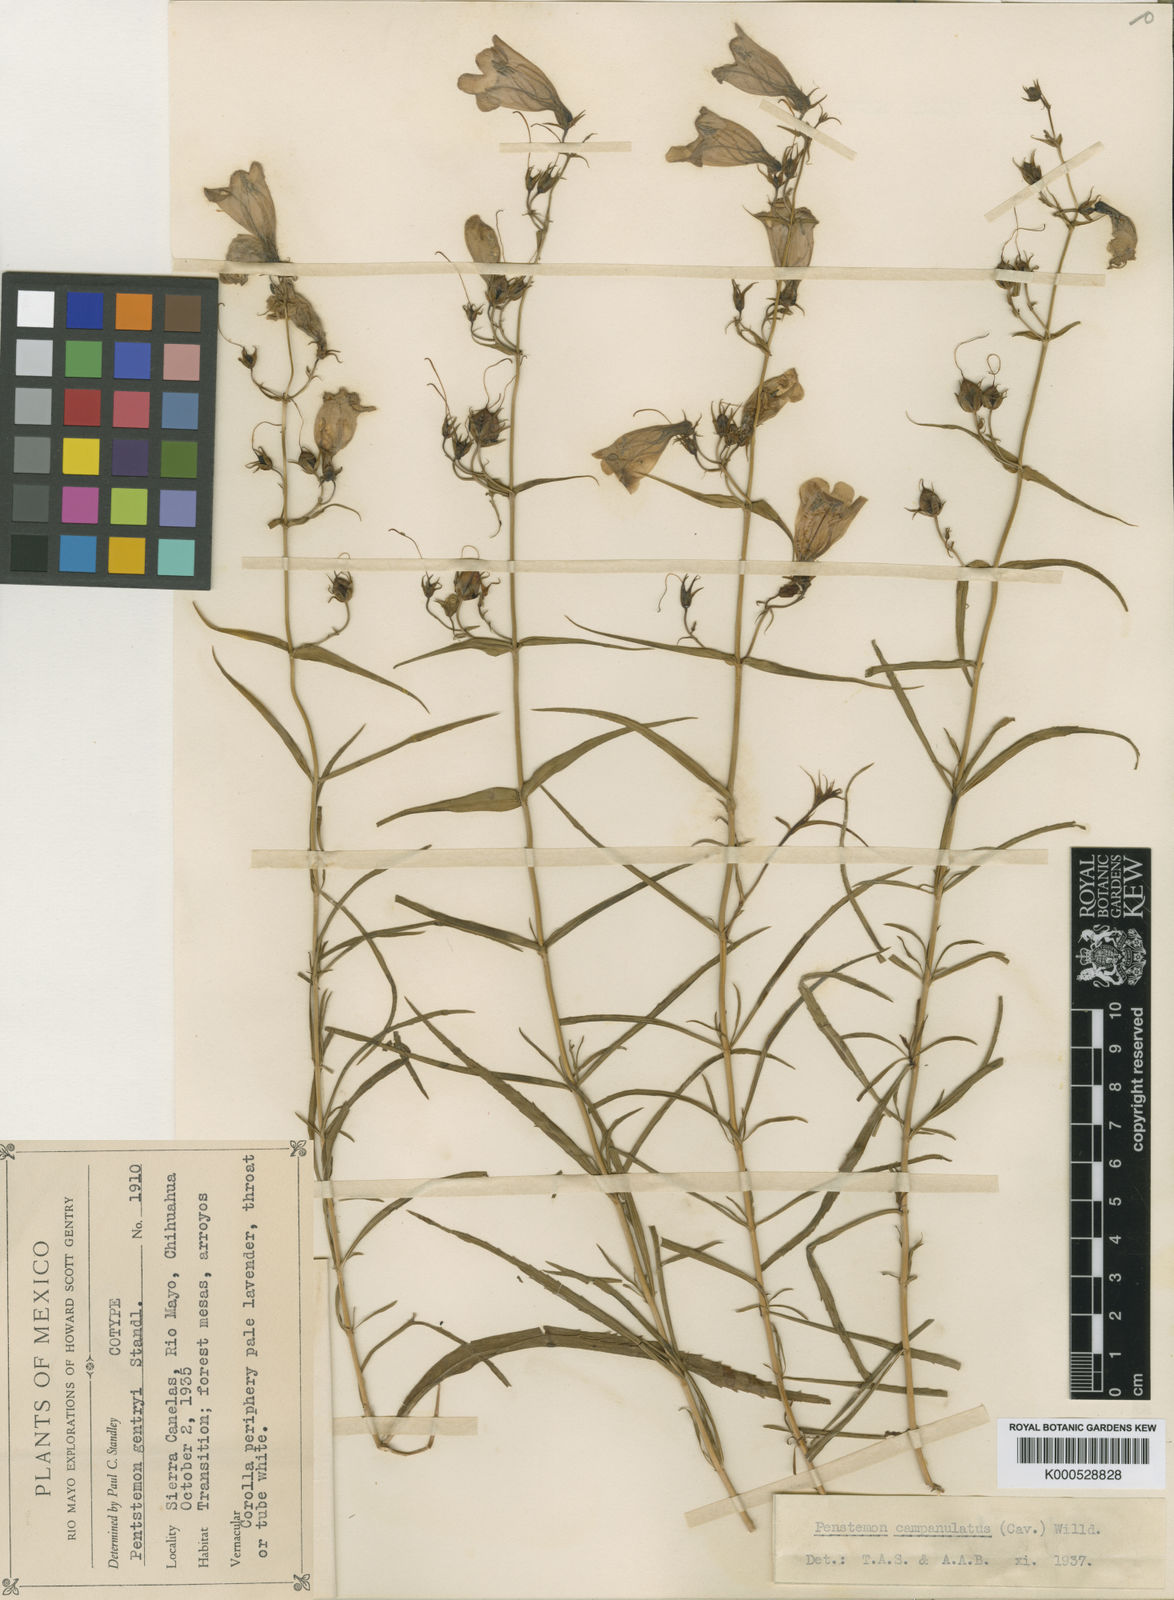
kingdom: Plantae
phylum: Tracheophyta
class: Magnoliopsida
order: Lamiales
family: Plantaginaceae
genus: Penstemon
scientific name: Penstemon campanulatus
